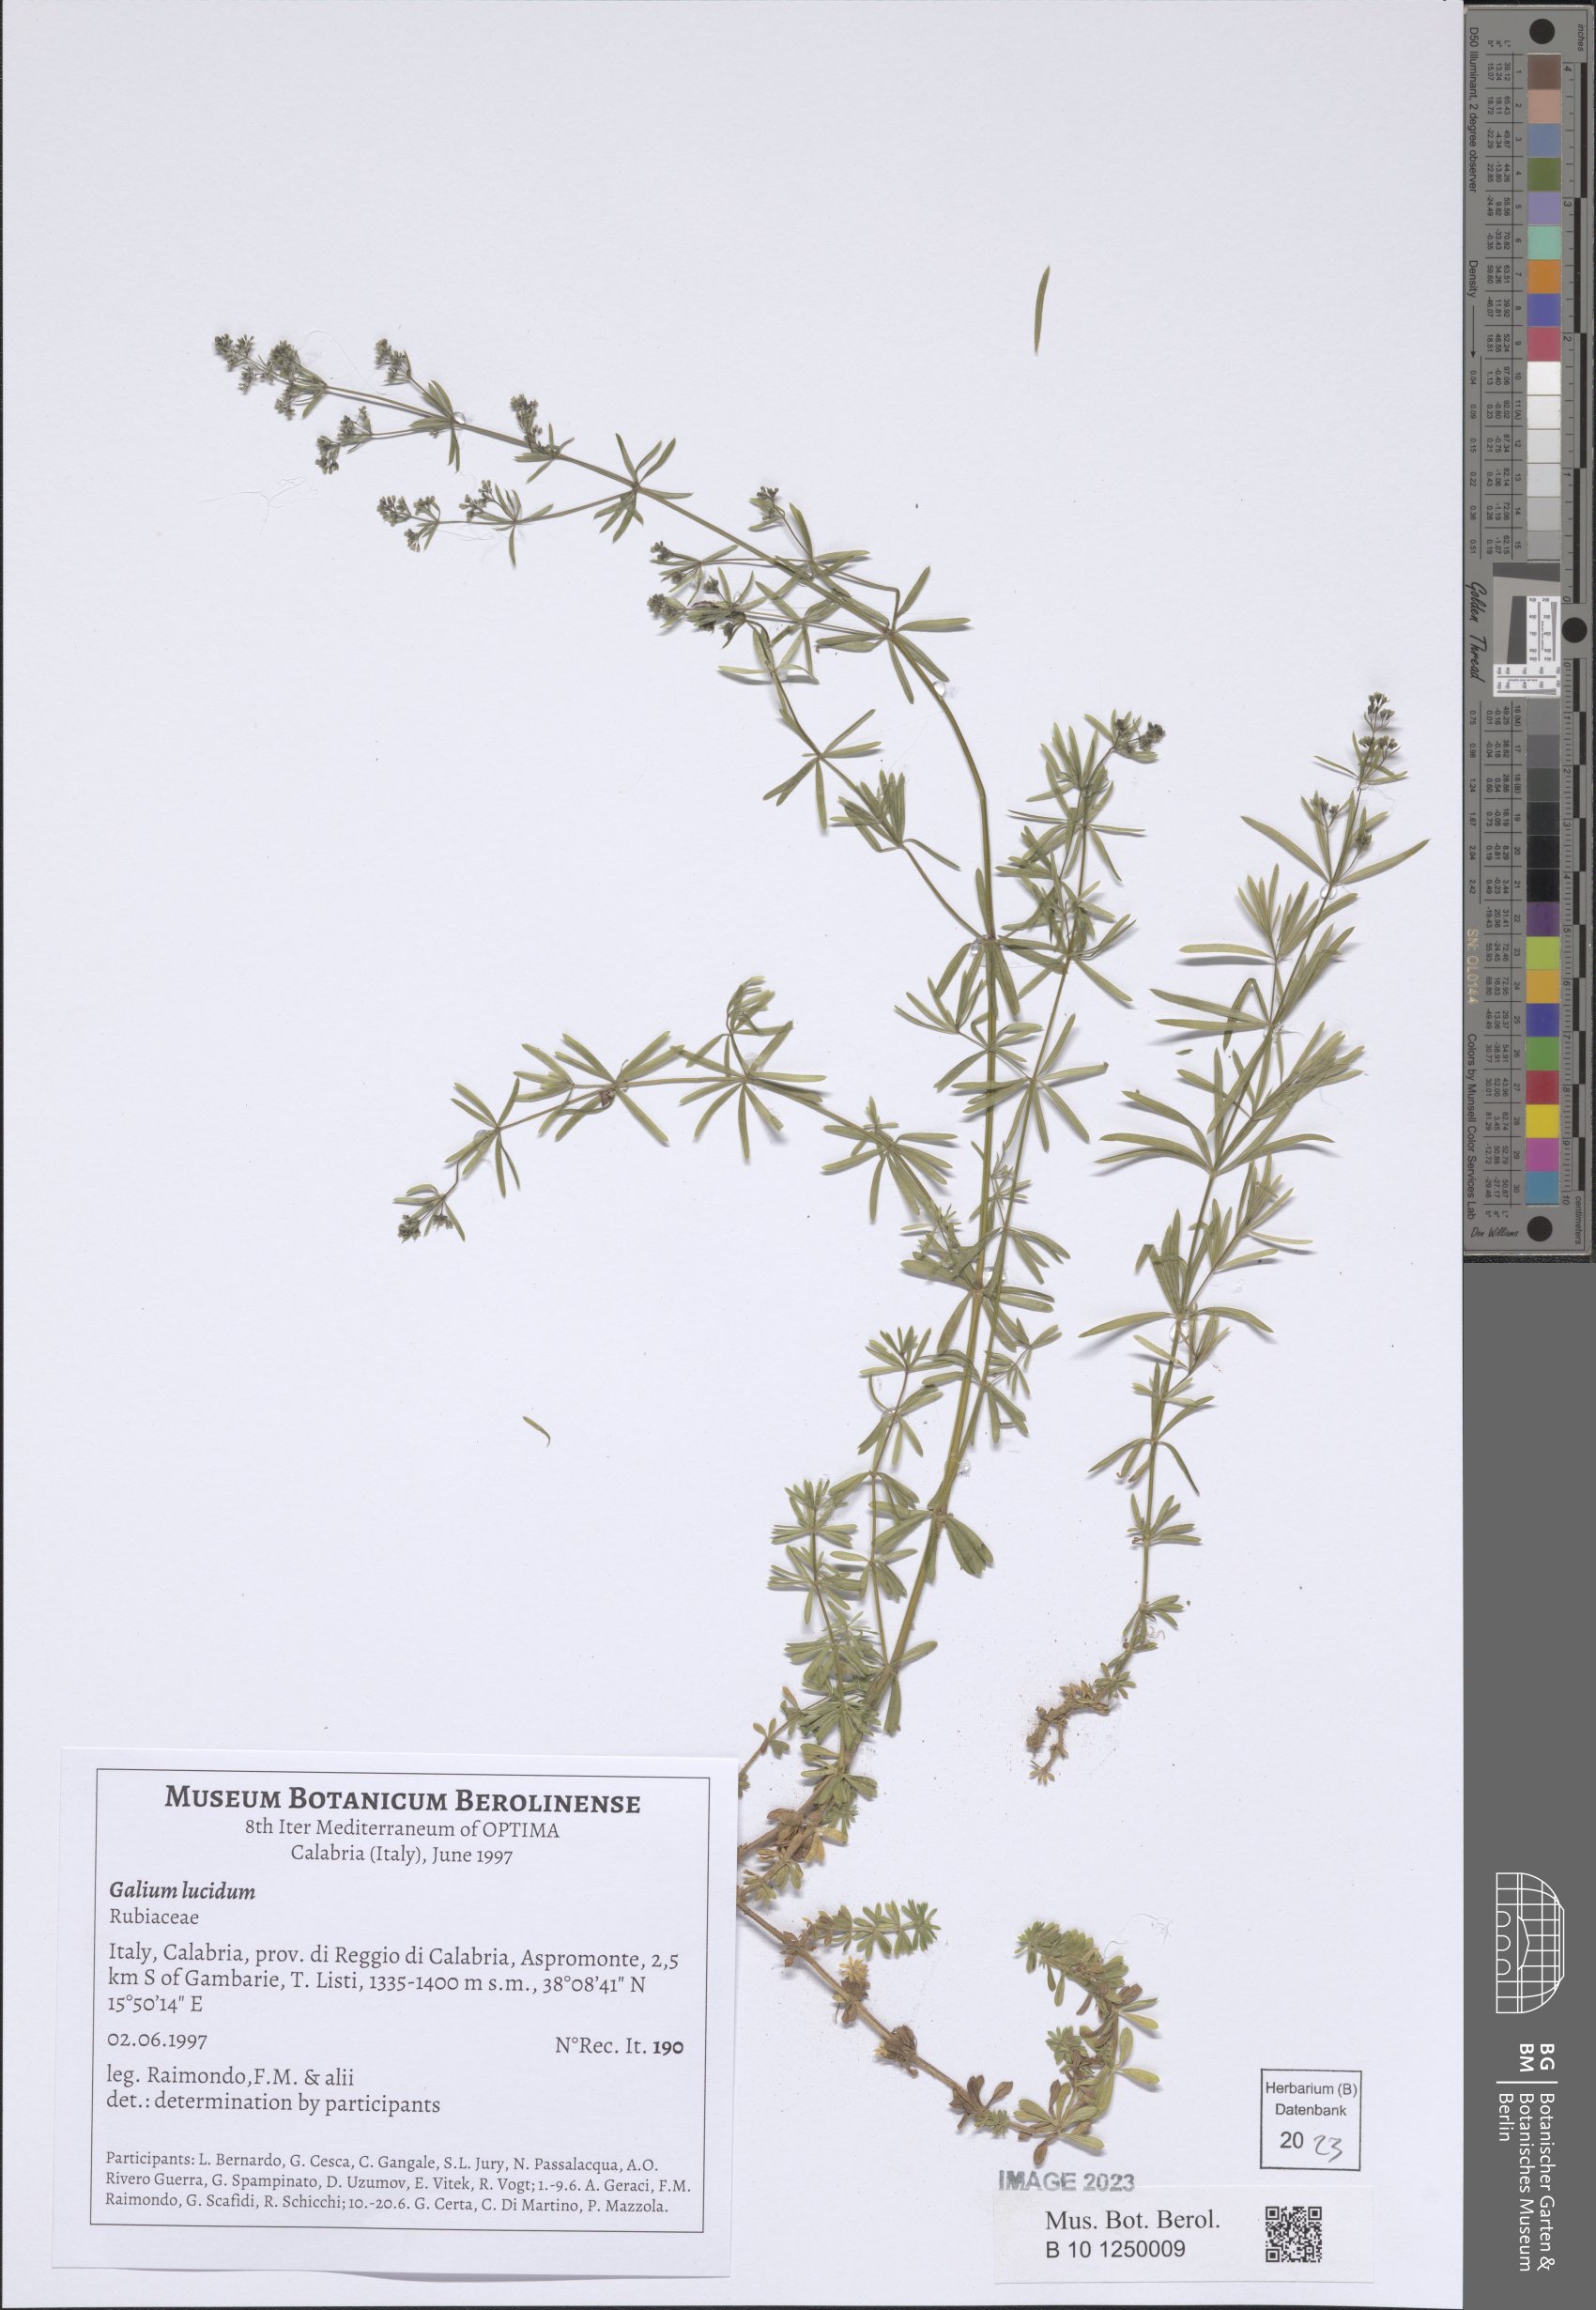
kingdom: Plantae
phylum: Tracheophyta
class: Magnoliopsida
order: Gentianales
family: Rubiaceae
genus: Galium
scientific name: Galium lucidum
